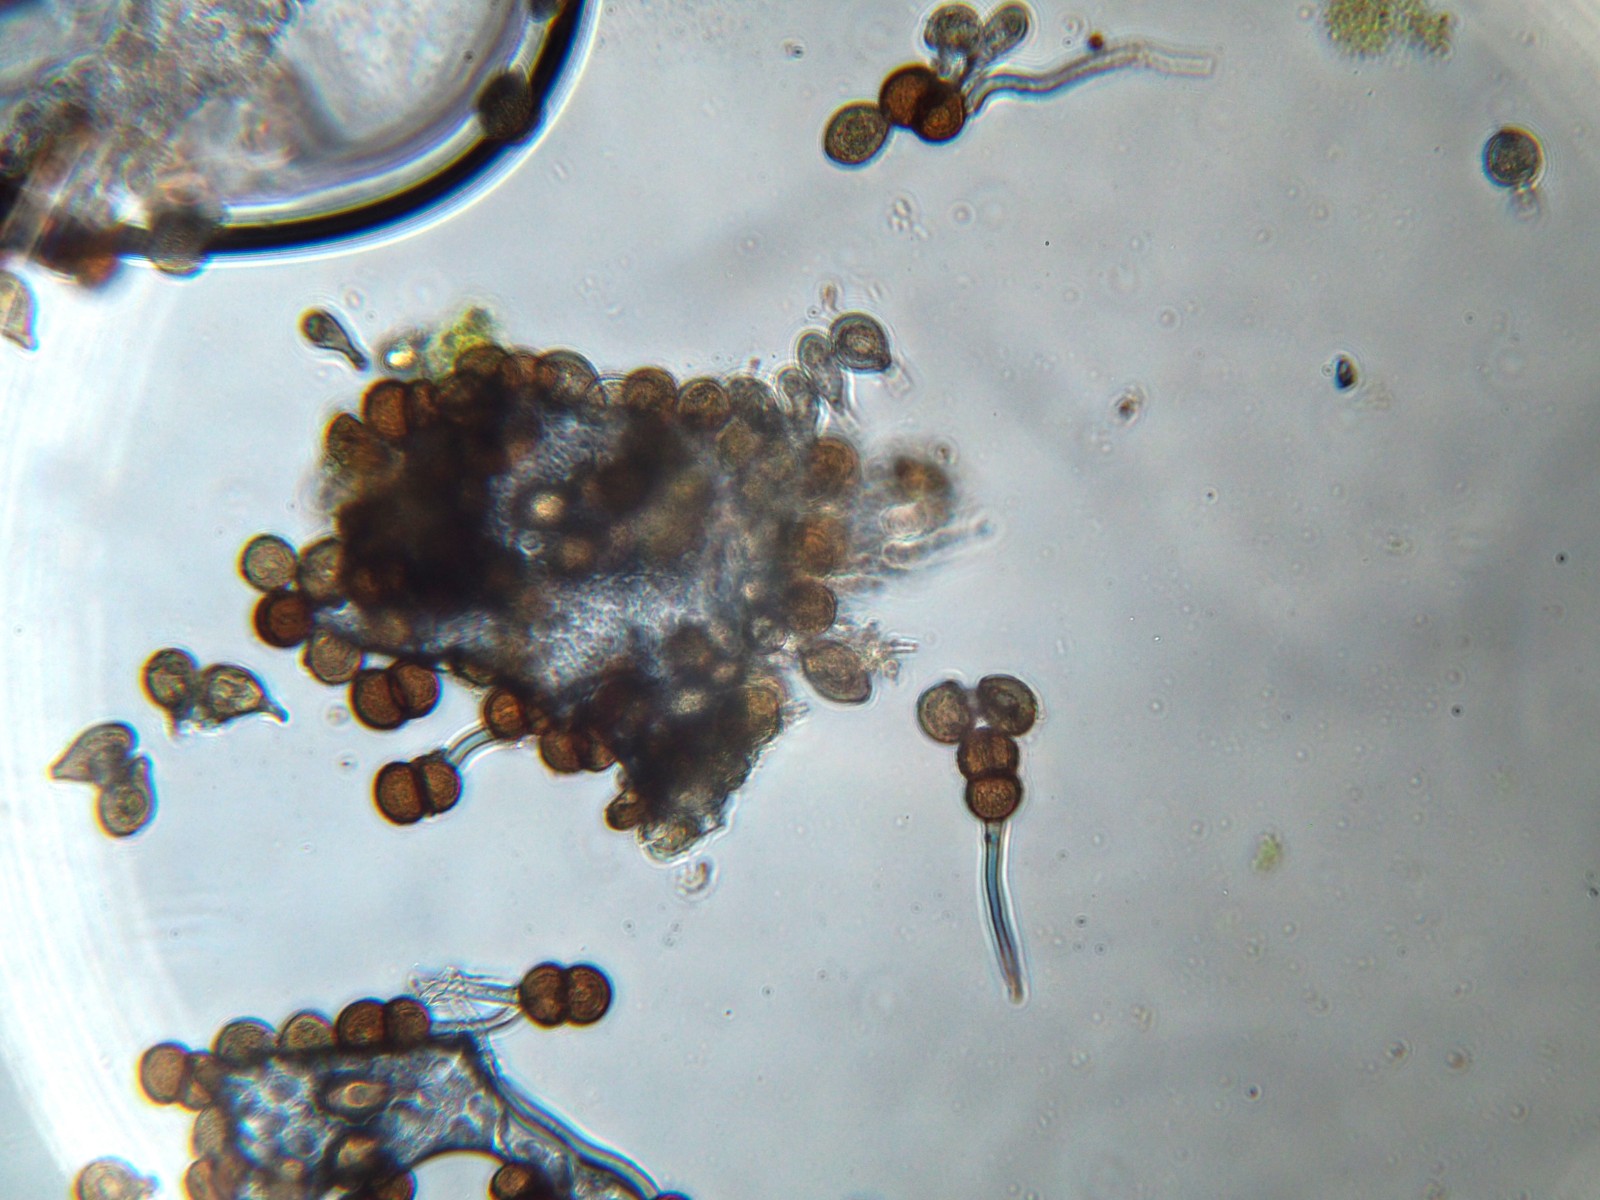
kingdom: Fungi
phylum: Basidiomycota
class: Pucciniomycetes
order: Pucciniales
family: Pucciniaceae
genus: Cumminsiella
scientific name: Cumminsiella mirabilissima
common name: mahonierust
